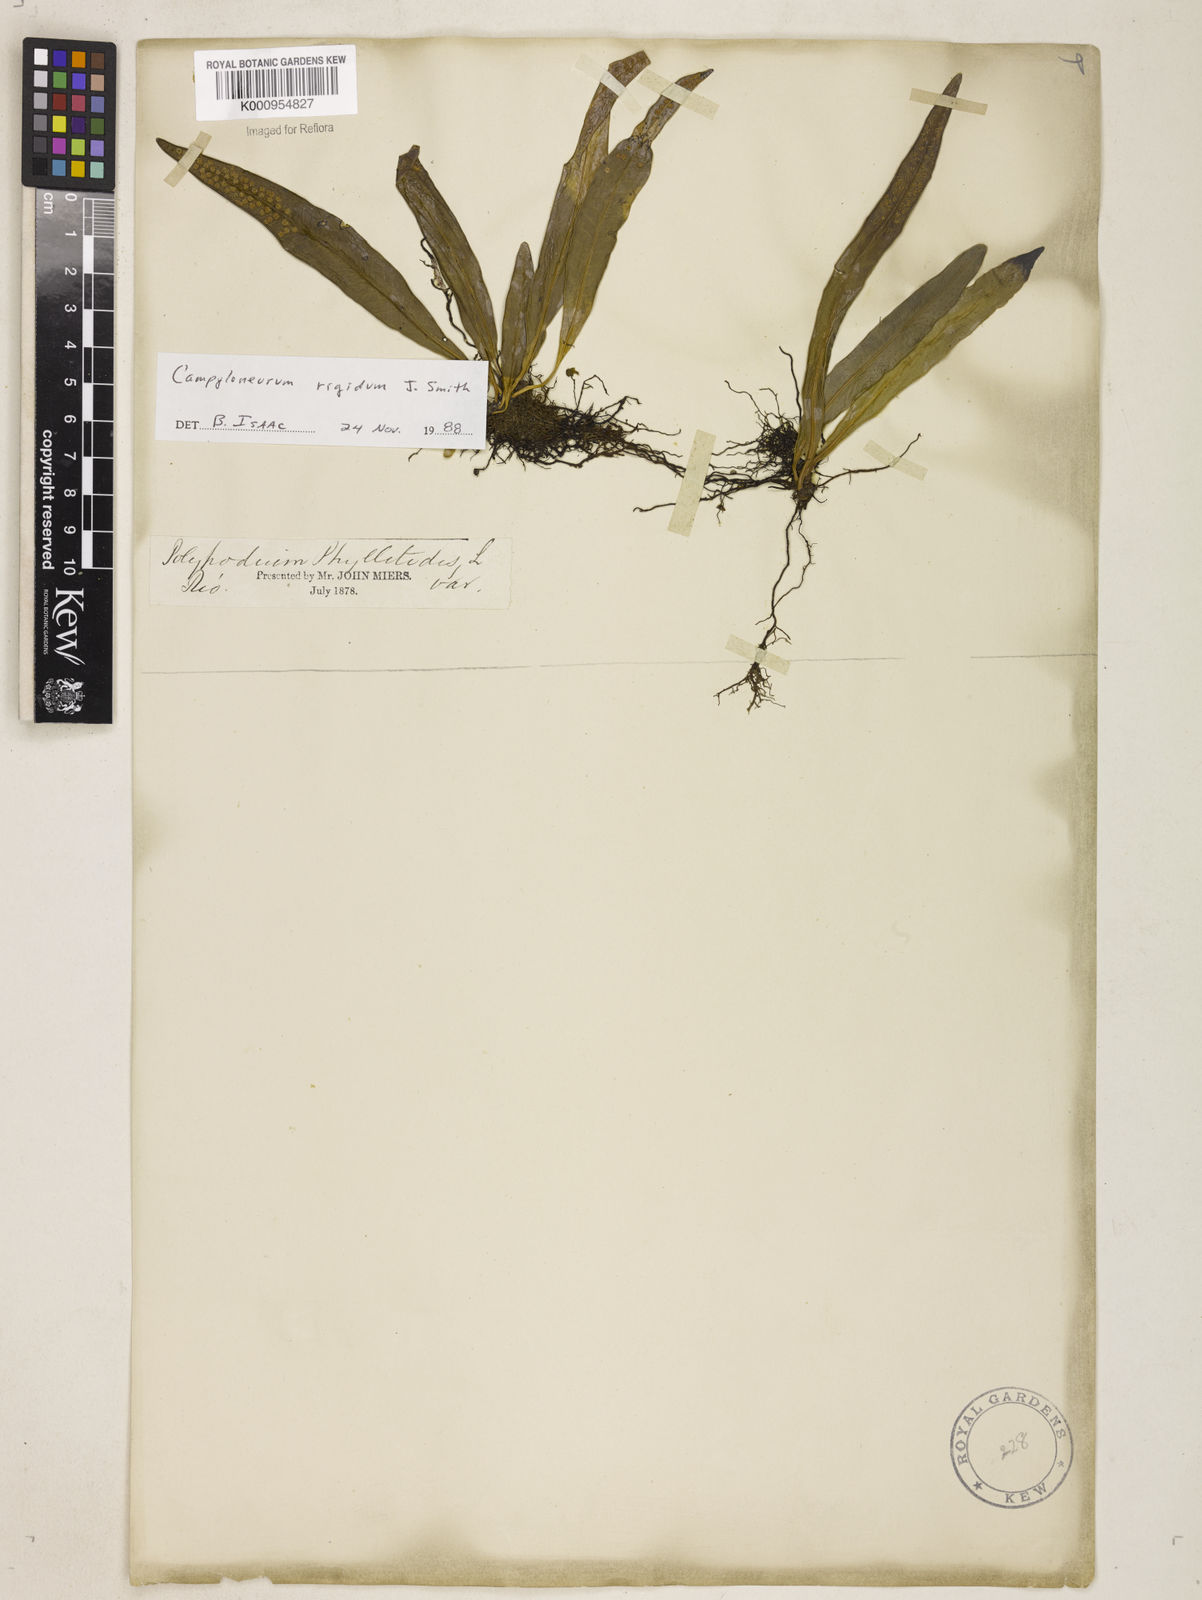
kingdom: Plantae
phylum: Tracheophyta
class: Polypodiopsida
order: Polypodiales
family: Polypodiaceae
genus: Campyloneurum
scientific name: Campyloneurum rigidum
